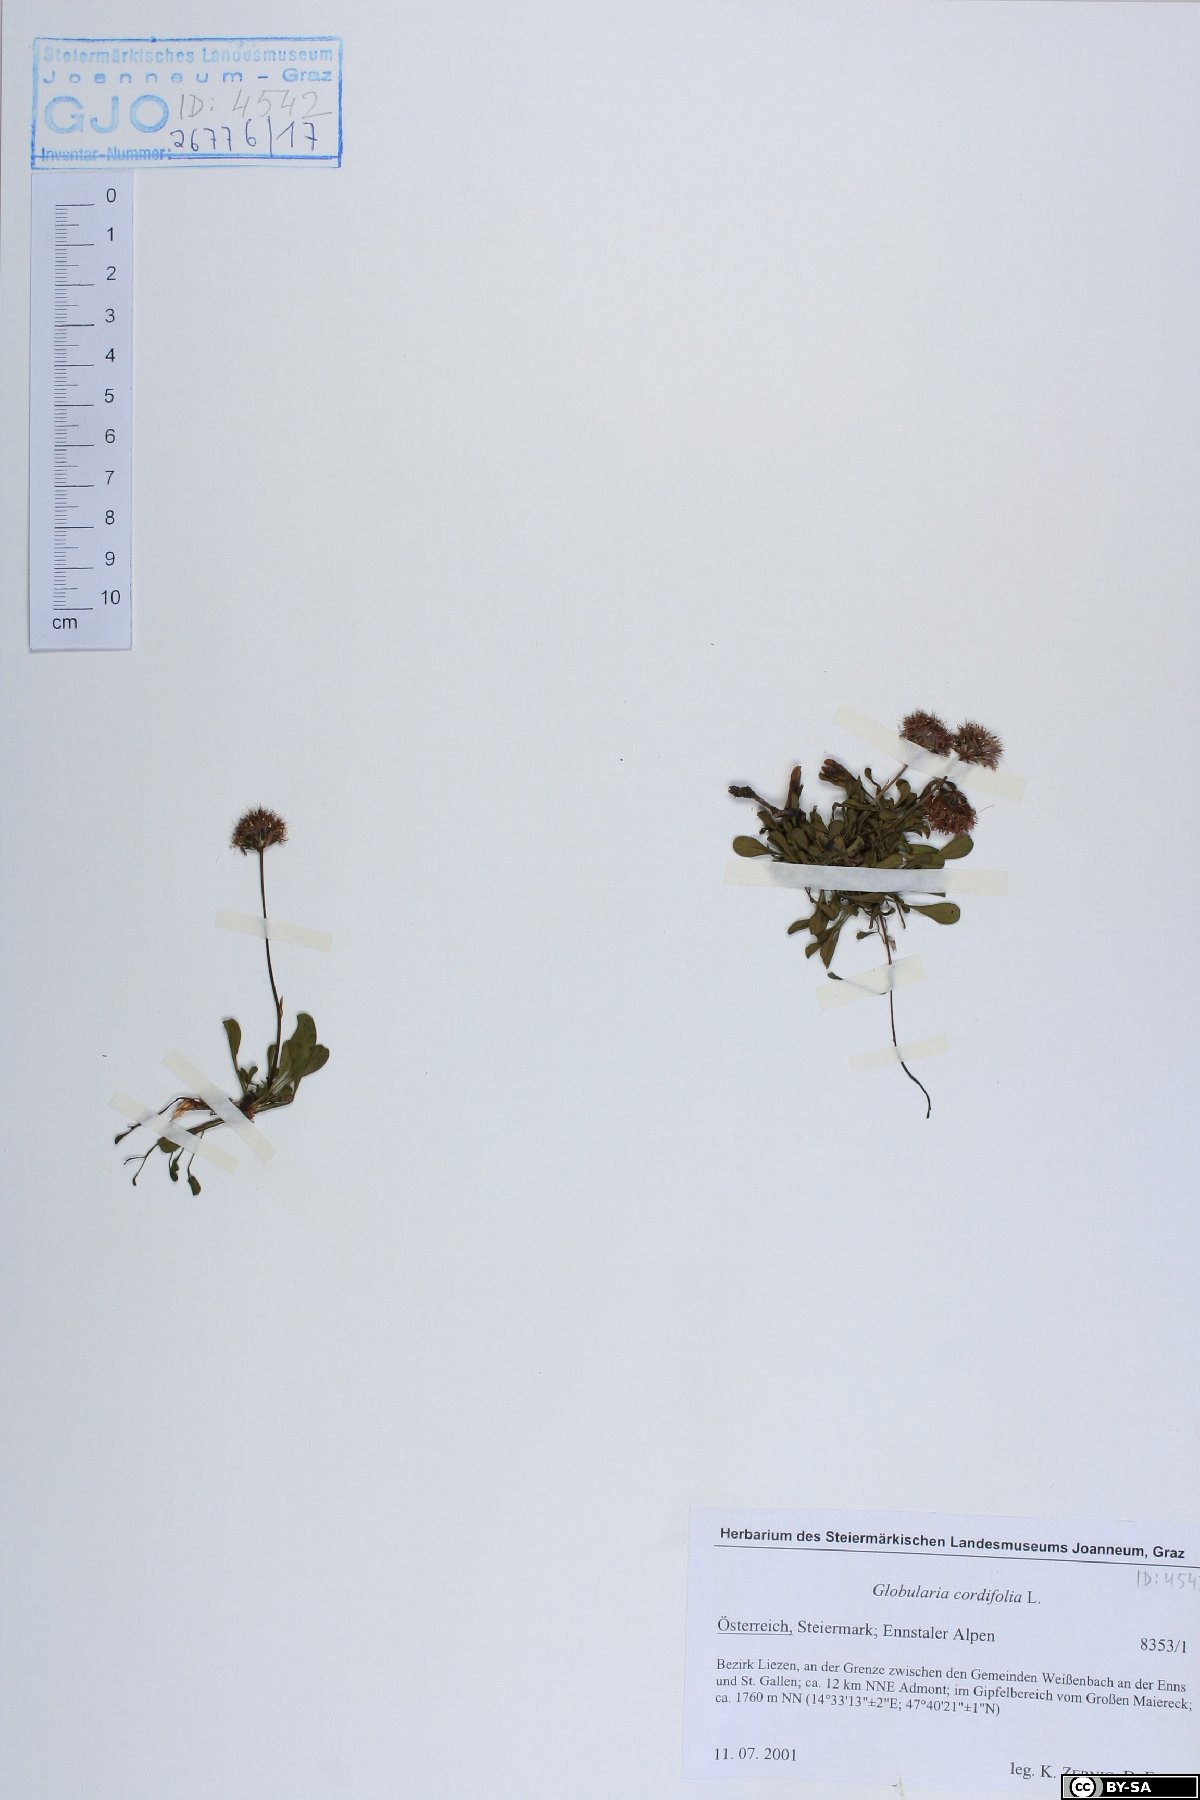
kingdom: Plantae
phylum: Tracheophyta
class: Magnoliopsida
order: Lamiales
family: Plantaginaceae
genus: Globularia
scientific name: Globularia cordifolia
